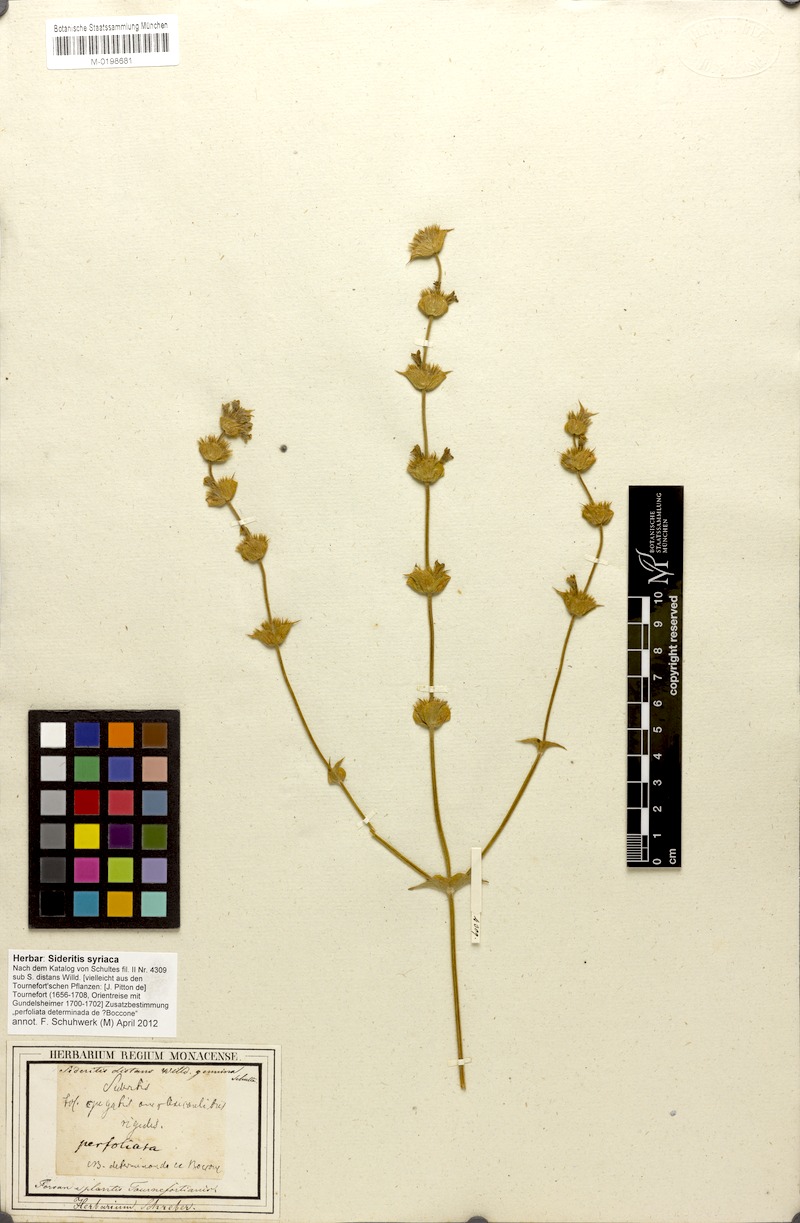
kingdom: Plantae
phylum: Tracheophyta
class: Magnoliopsida
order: Lamiales
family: Lamiaceae
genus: Sideritis
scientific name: Sideritis taurica
